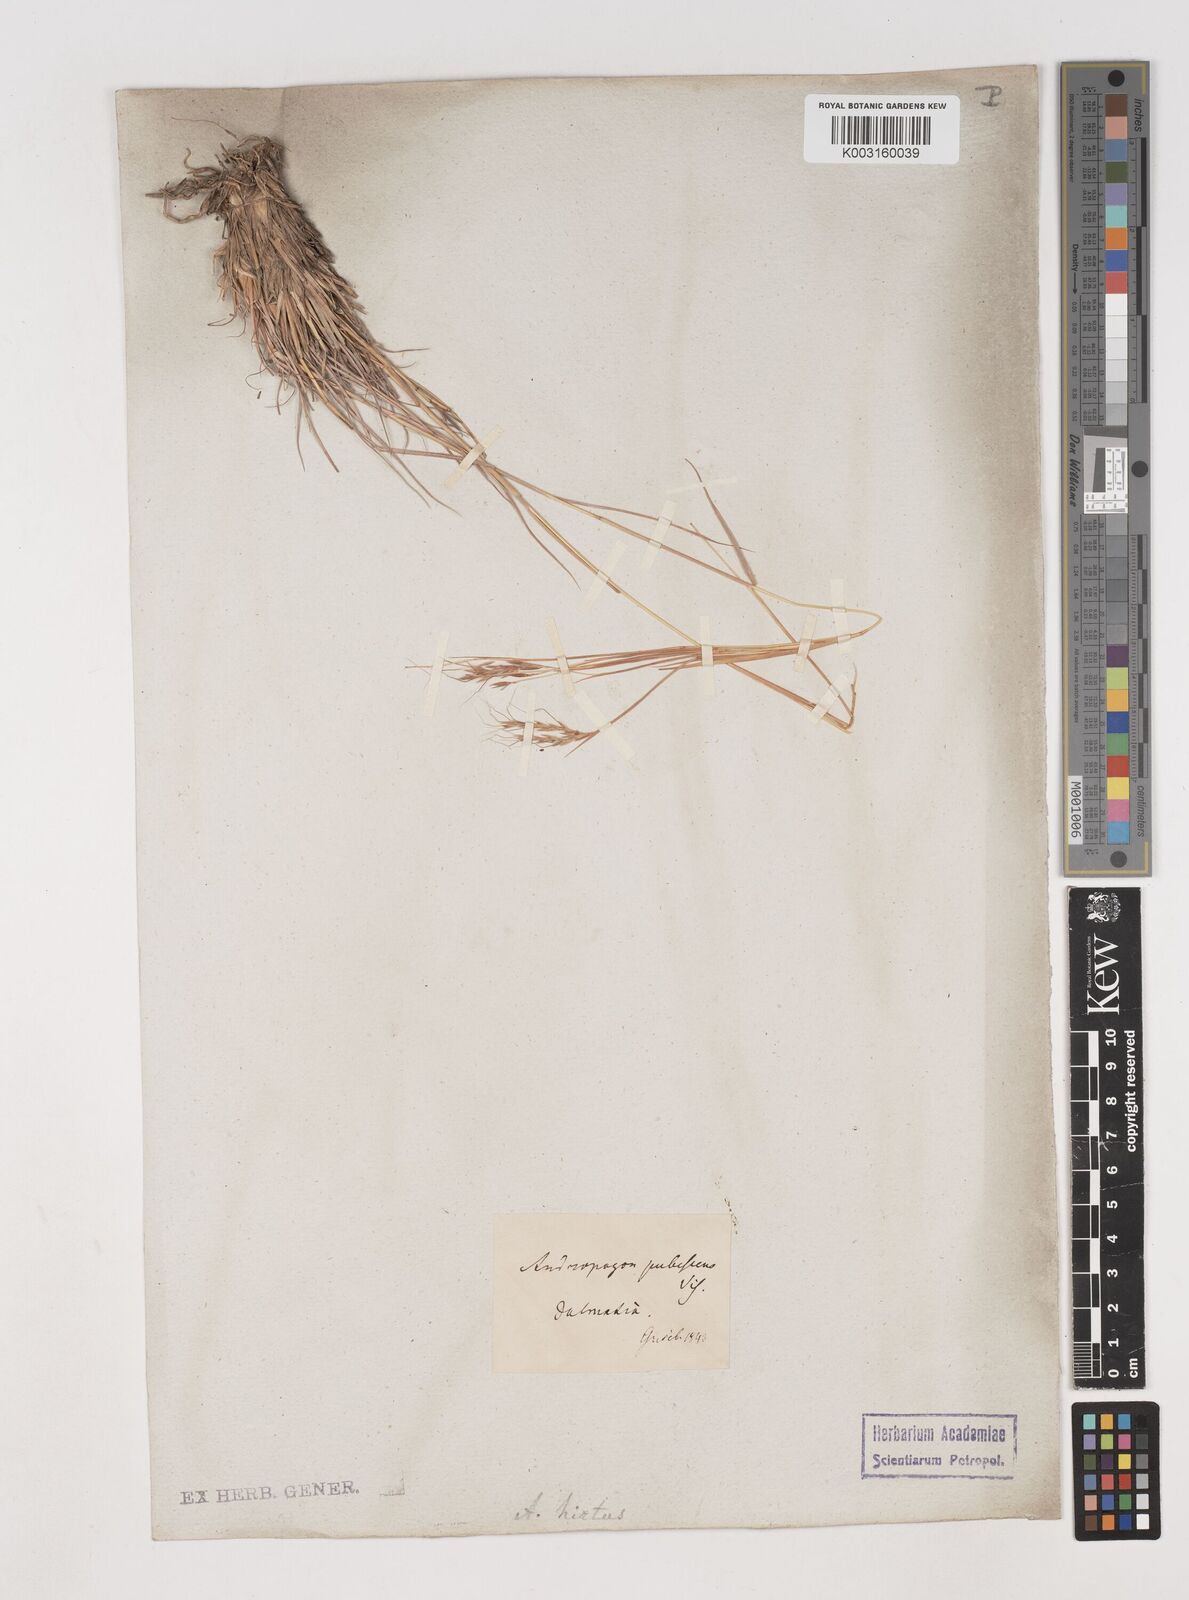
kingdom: Plantae
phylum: Tracheophyta
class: Liliopsida
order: Poales
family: Poaceae
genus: Hyparrhenia
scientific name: Hyparrhenia hirta
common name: Thatching grass
